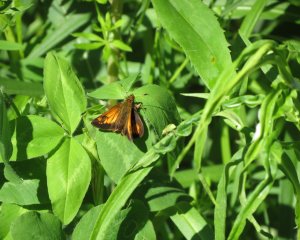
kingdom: Animalia
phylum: Arthropoda
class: Insecta
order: Lepidoptera
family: Hesperiidae
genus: Lon
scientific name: Lon hobomok
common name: Hobomok Skipper
